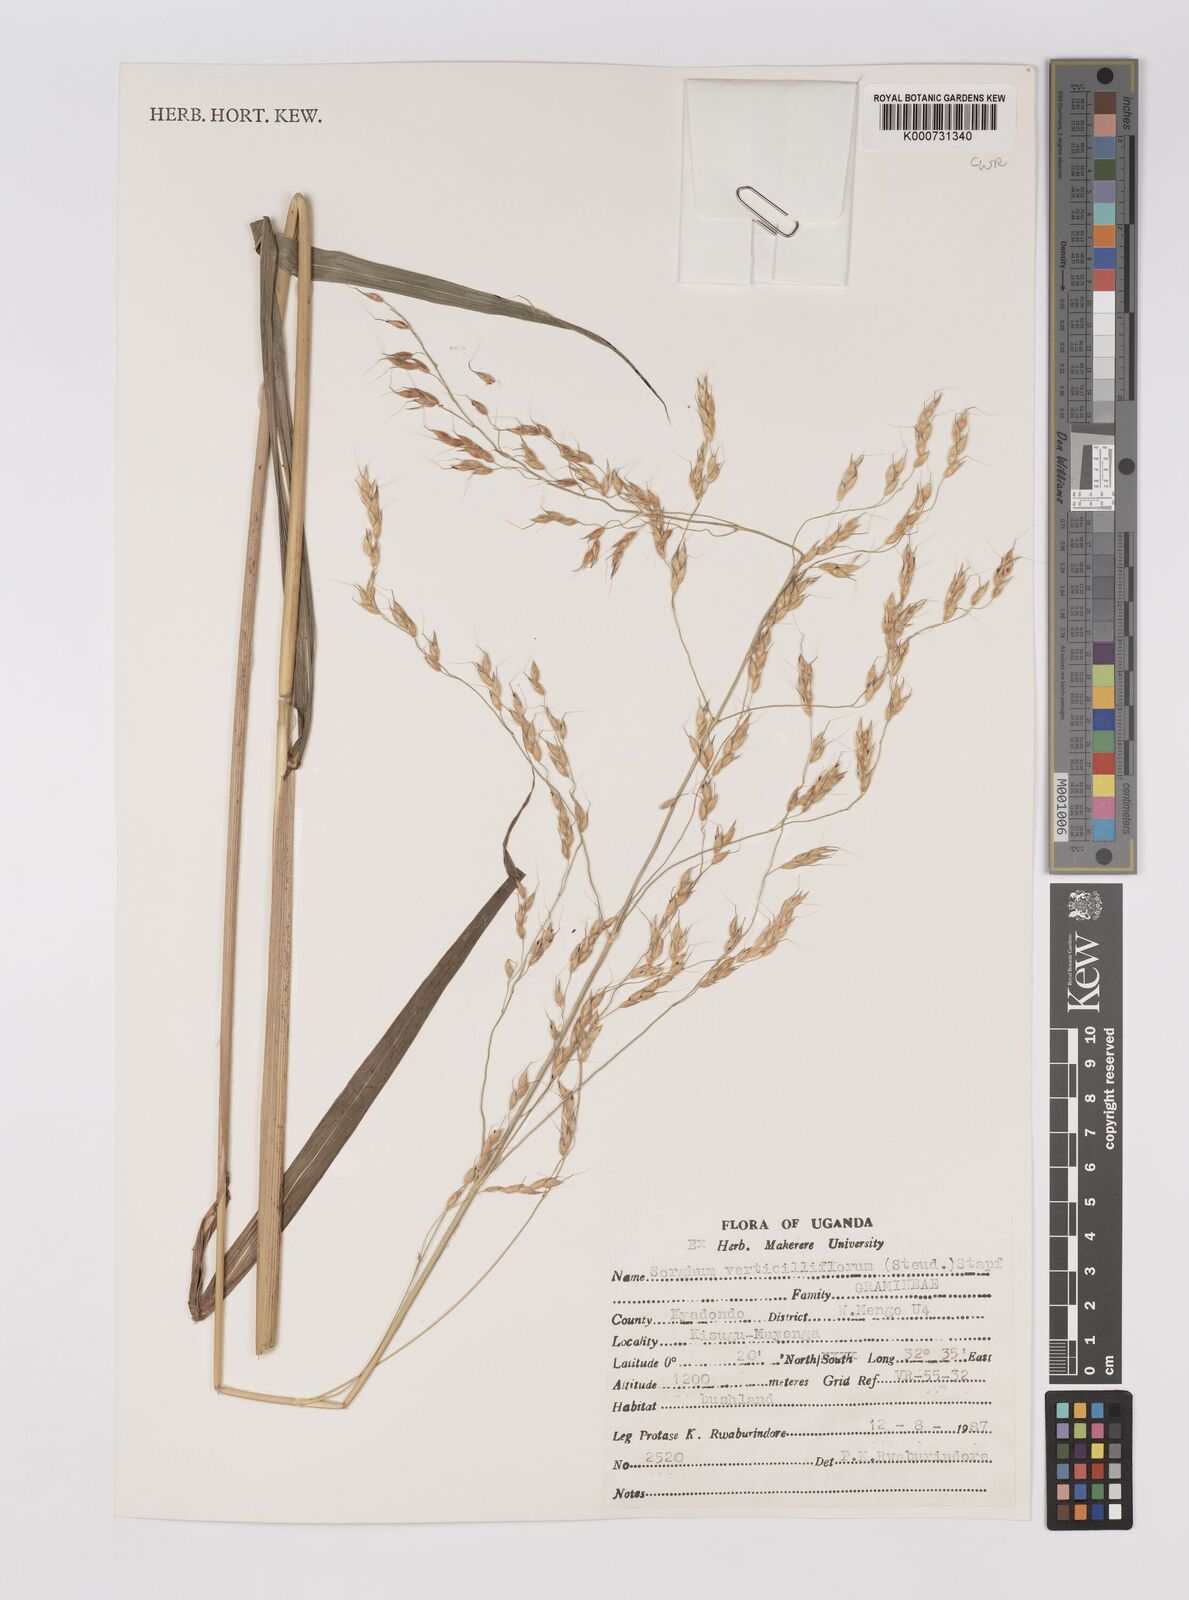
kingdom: Plantae
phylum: Tracheophyta
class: Liliopsida
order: Poales
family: Poaceae
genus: Sorghum
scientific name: Sorghum arundinaceum
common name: Sorghum
